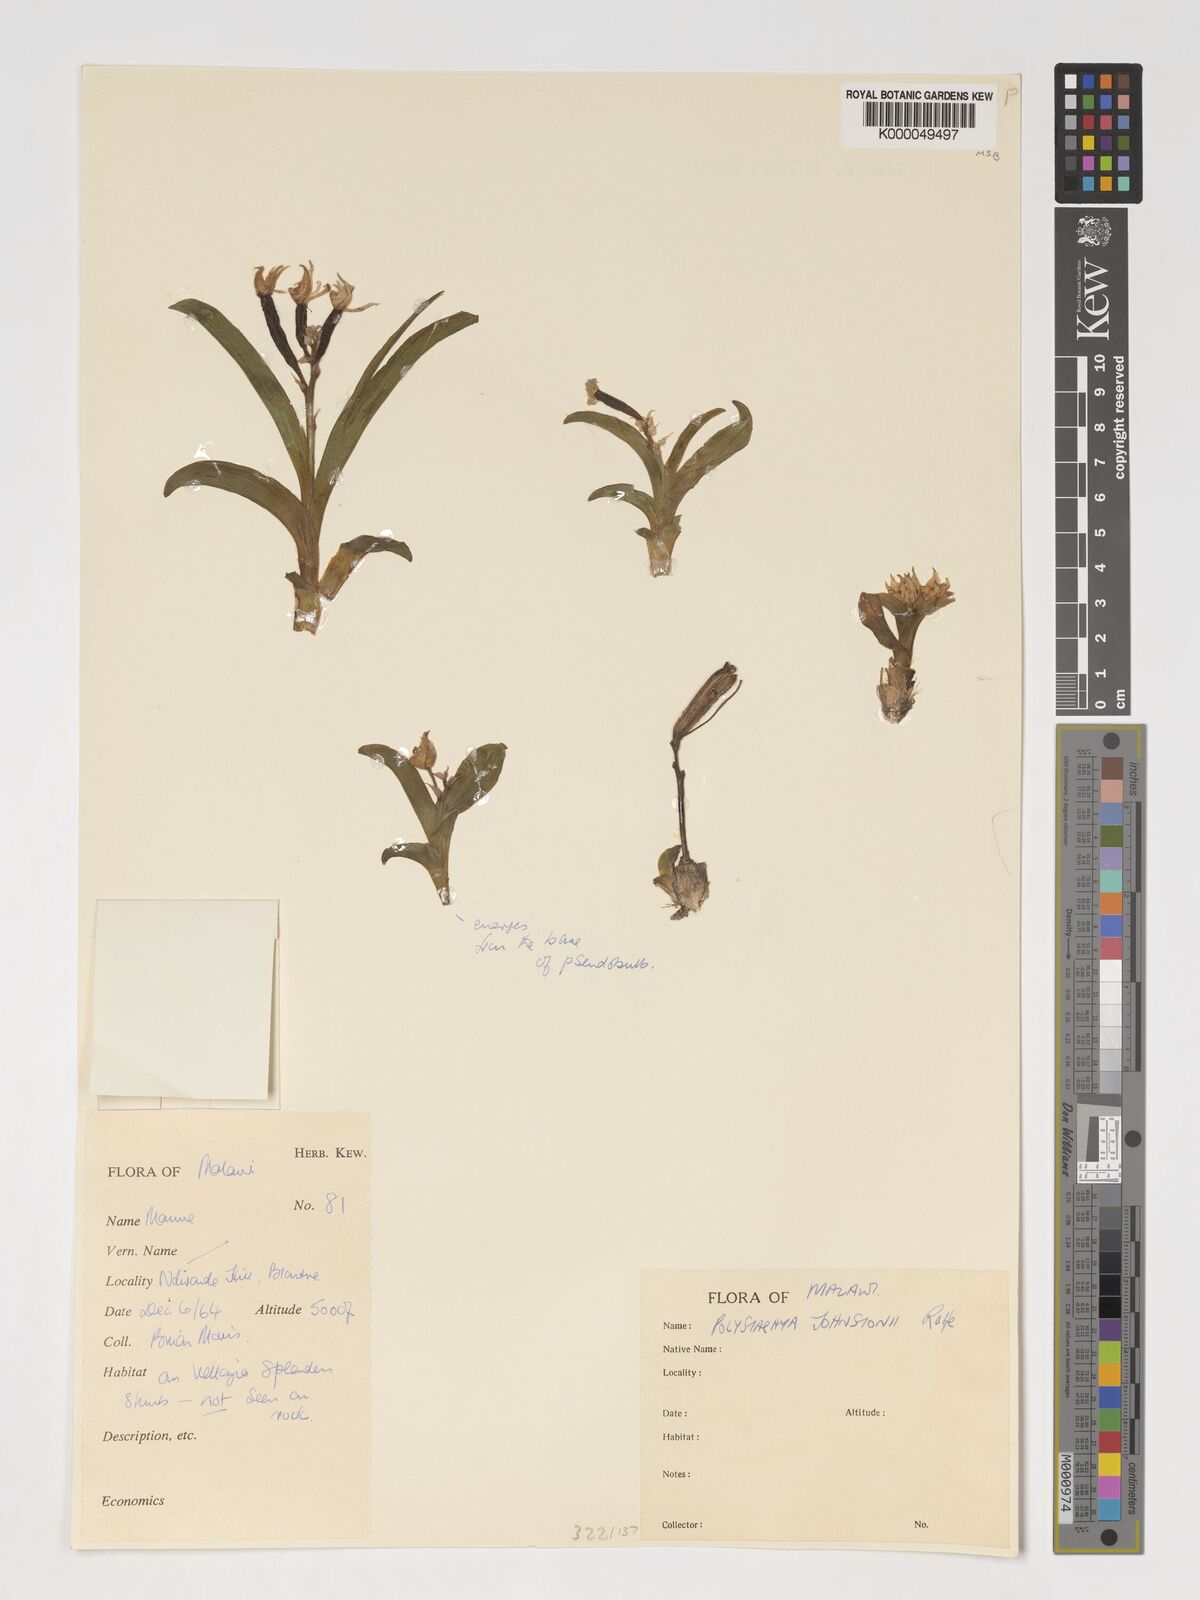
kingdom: Plantae
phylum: Tracheophyta
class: Liliopsida
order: Asparagales
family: Orchidaceae
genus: Polystachya
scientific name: Polystachya johnstonii
